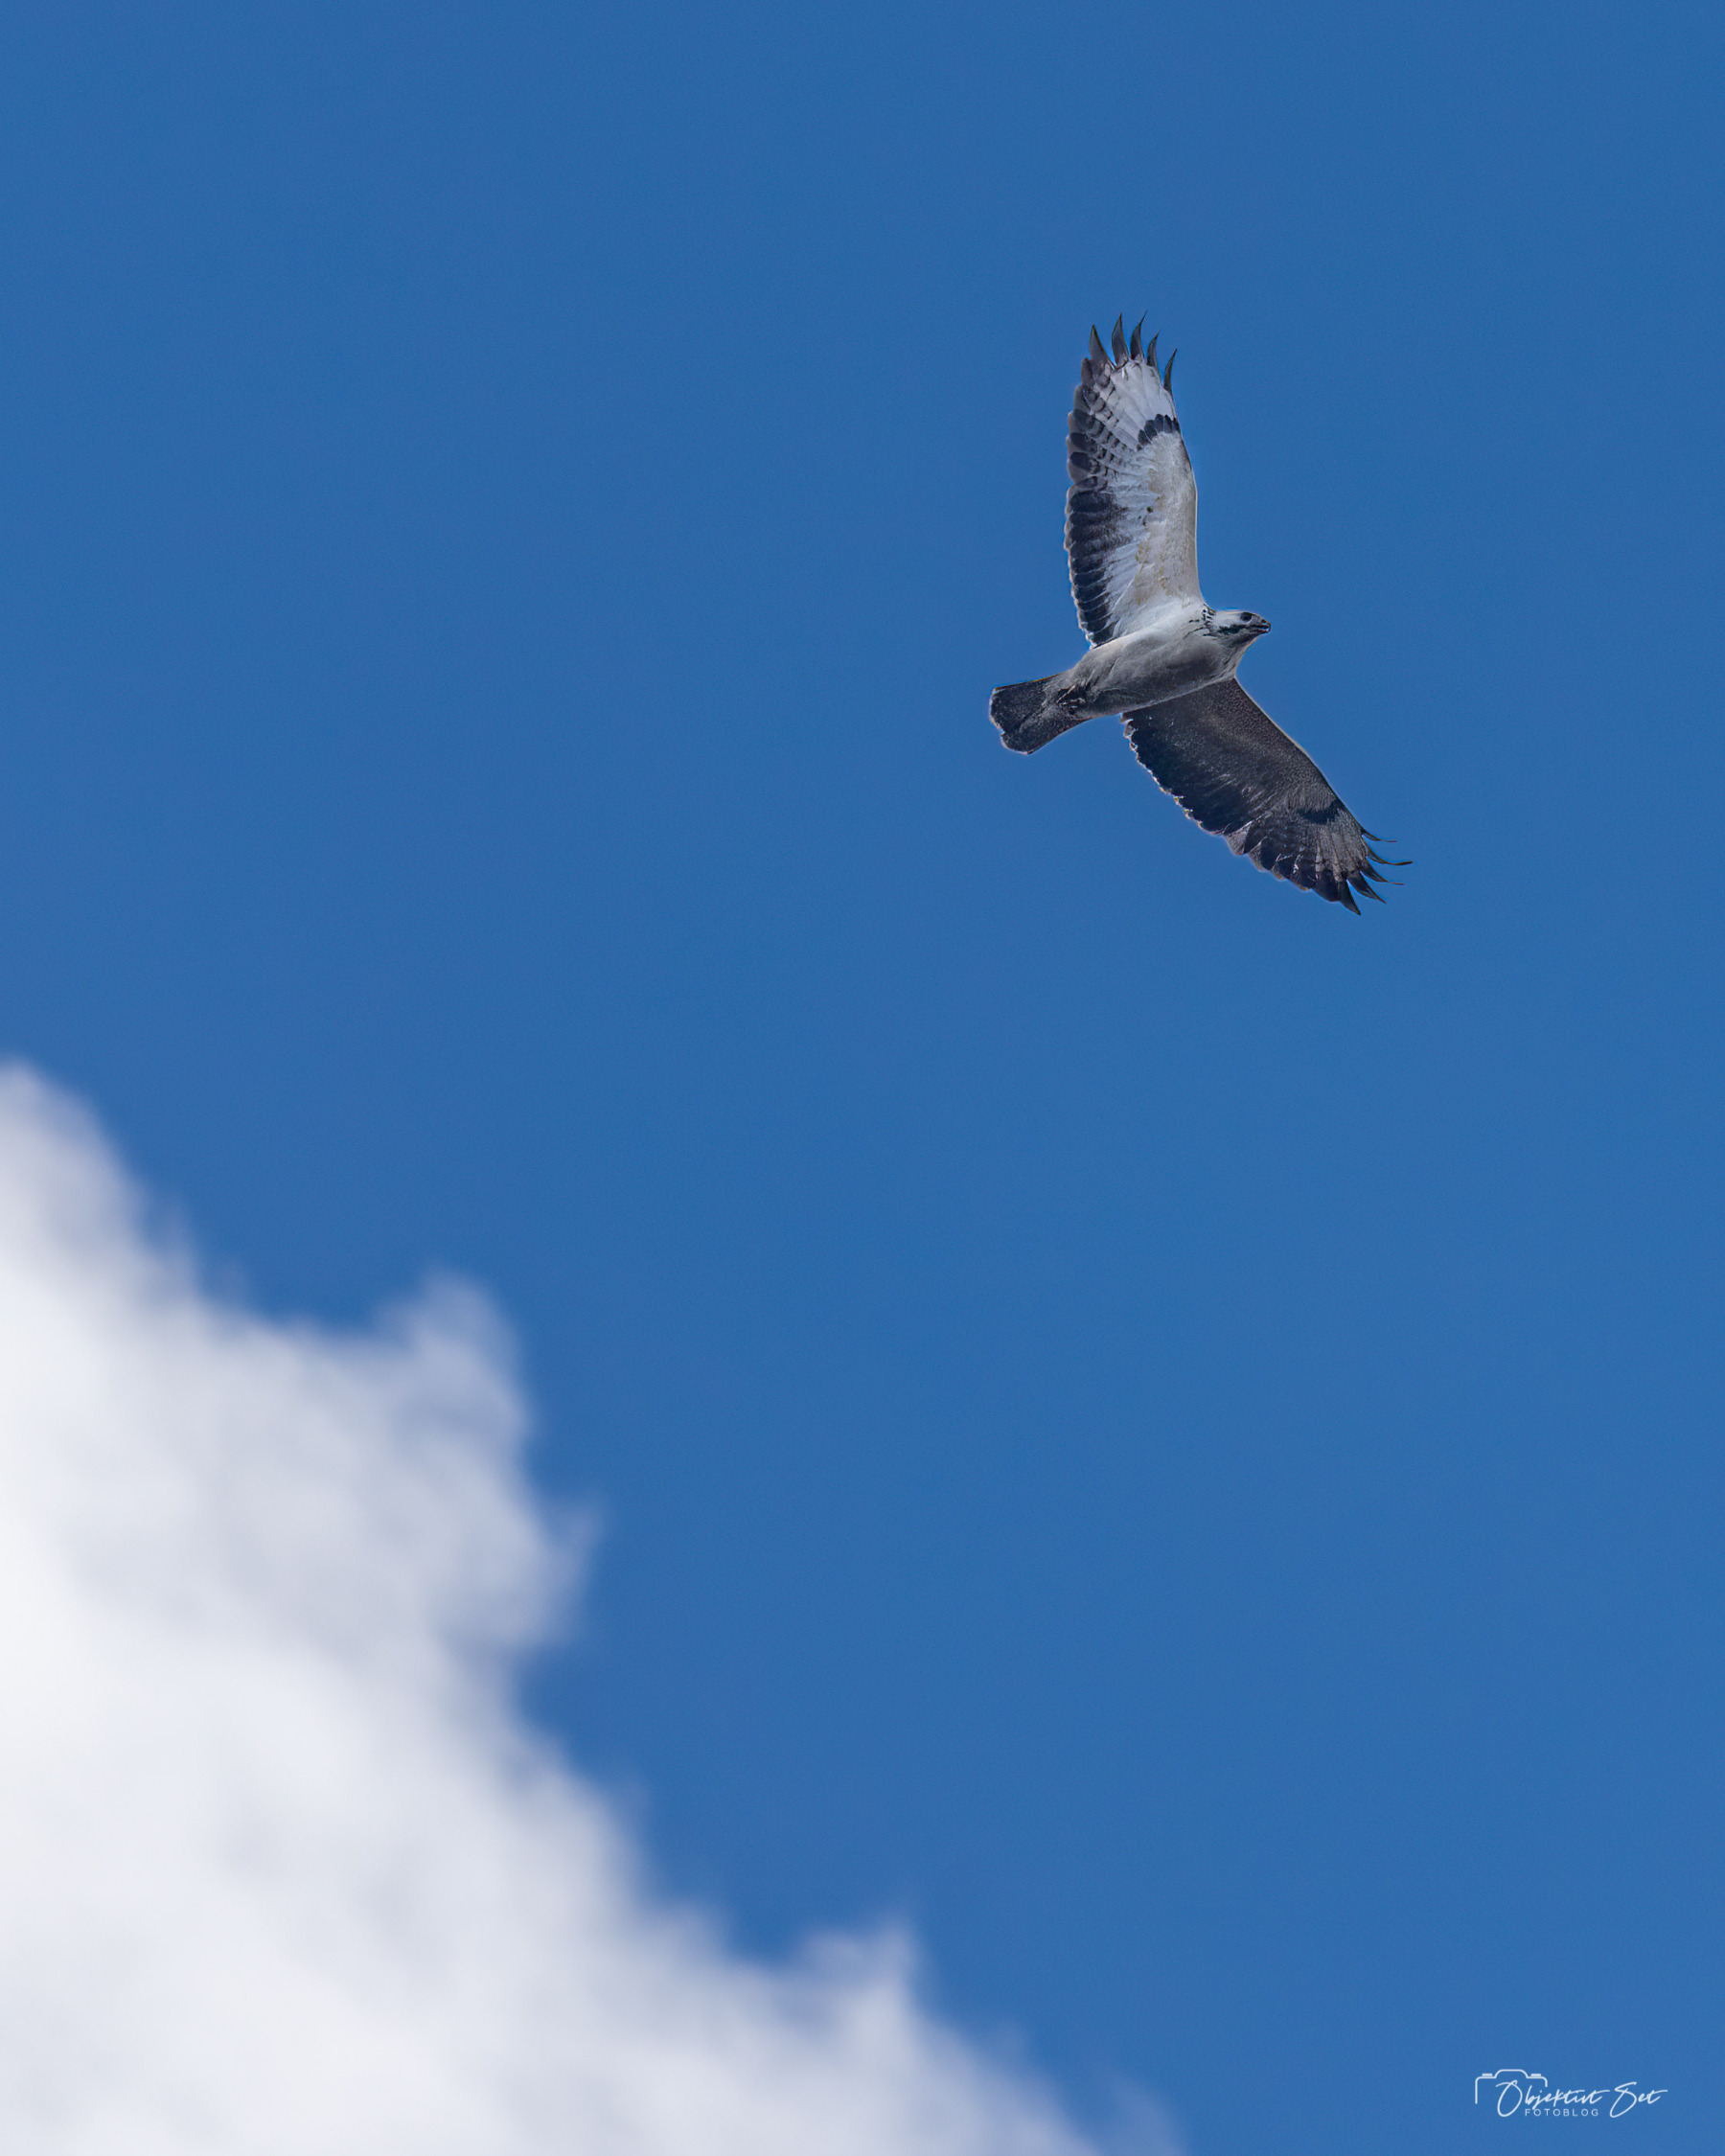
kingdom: Animalia
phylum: Chordata
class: Aves
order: Accipitriformes
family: Accipitridae
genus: Buteo
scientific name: Buteo buteo
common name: Musvåge
